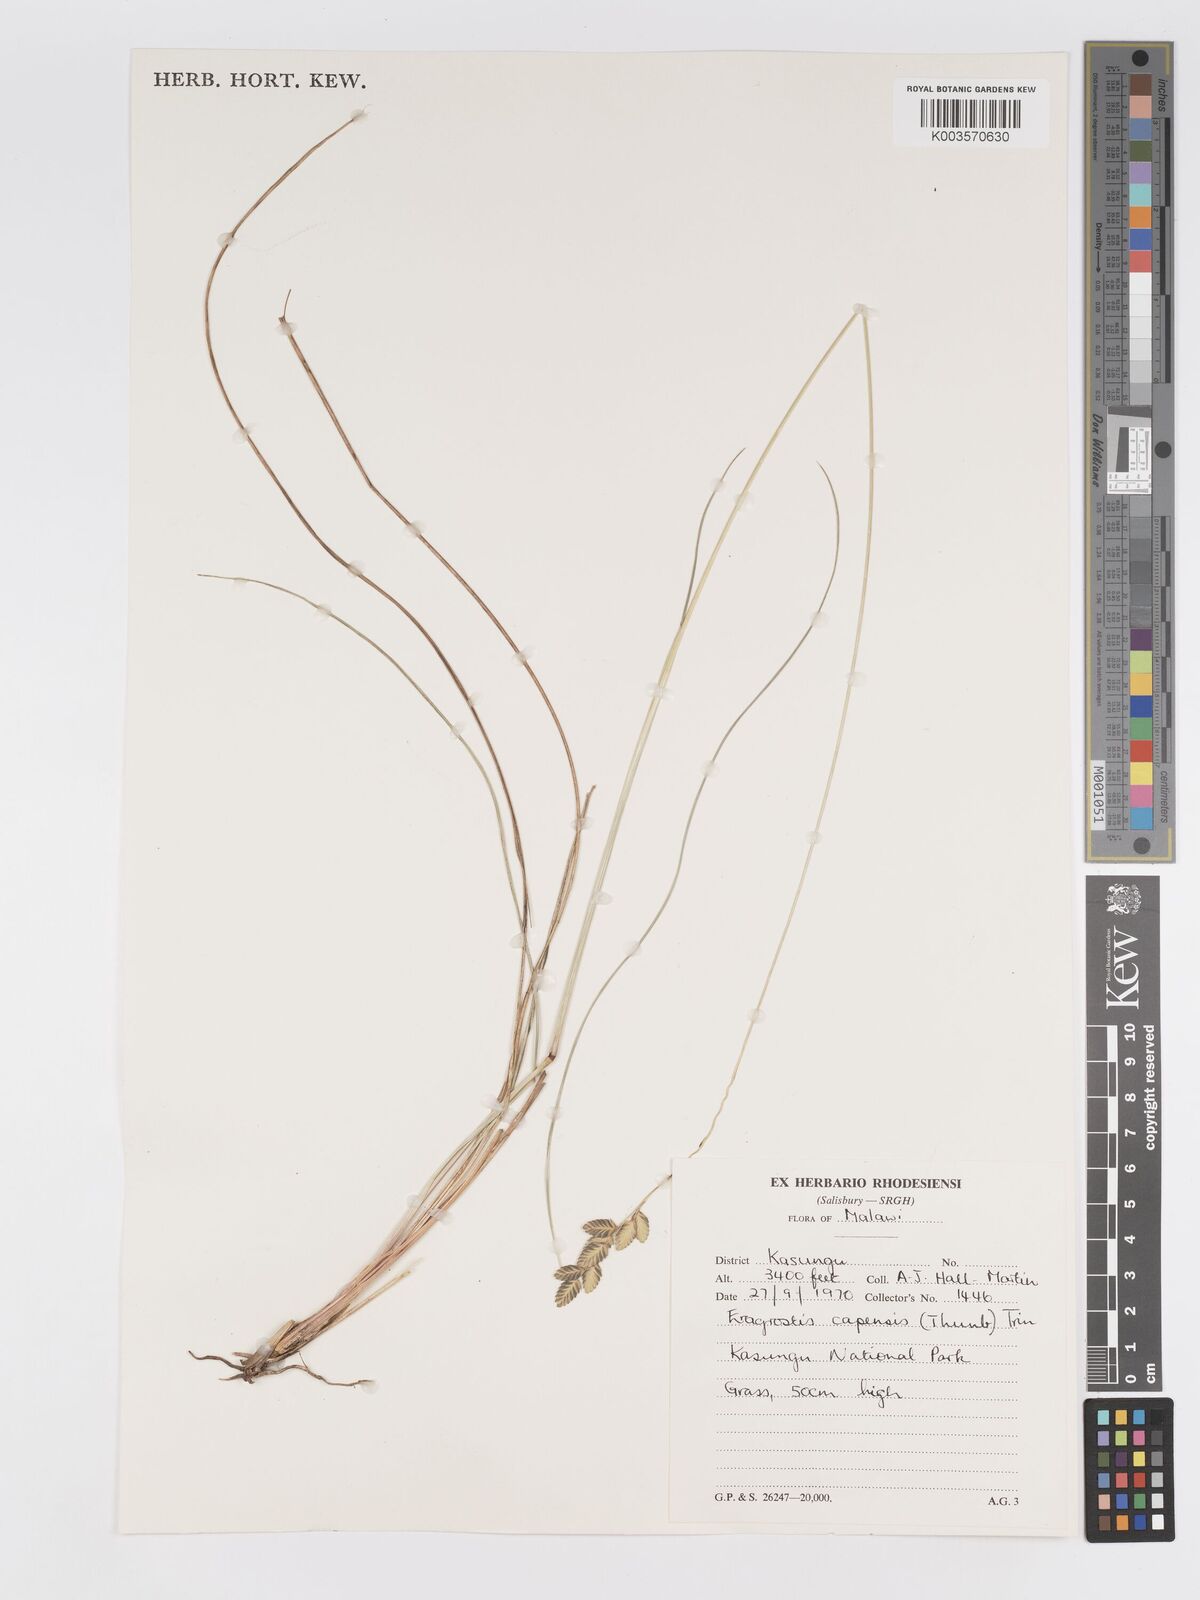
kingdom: Plantae
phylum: Tracheophyta
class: Liliopsida
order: Poales
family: Poaceae
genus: Eragrostis
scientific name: Eragrostis capensis
